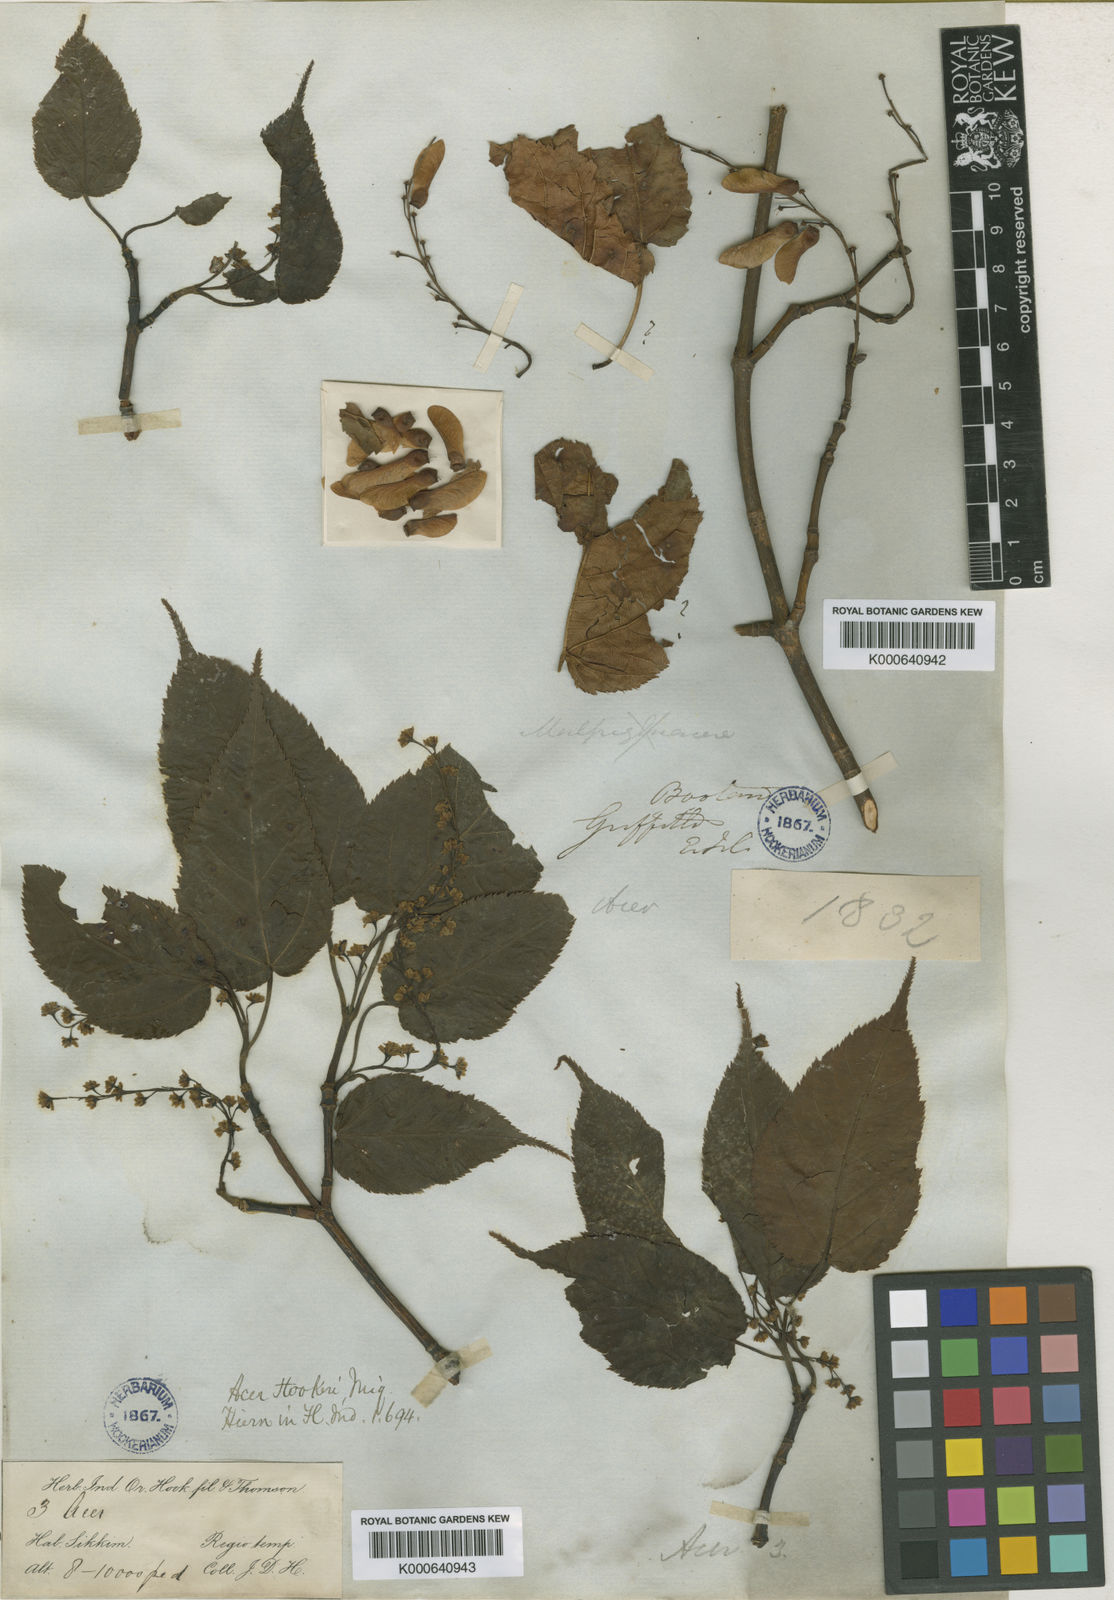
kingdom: Plantae
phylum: Tracheophyta
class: Magnoliopsida
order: Sapindales
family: Sapindaceae
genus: Acer
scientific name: Acer sikkimense
